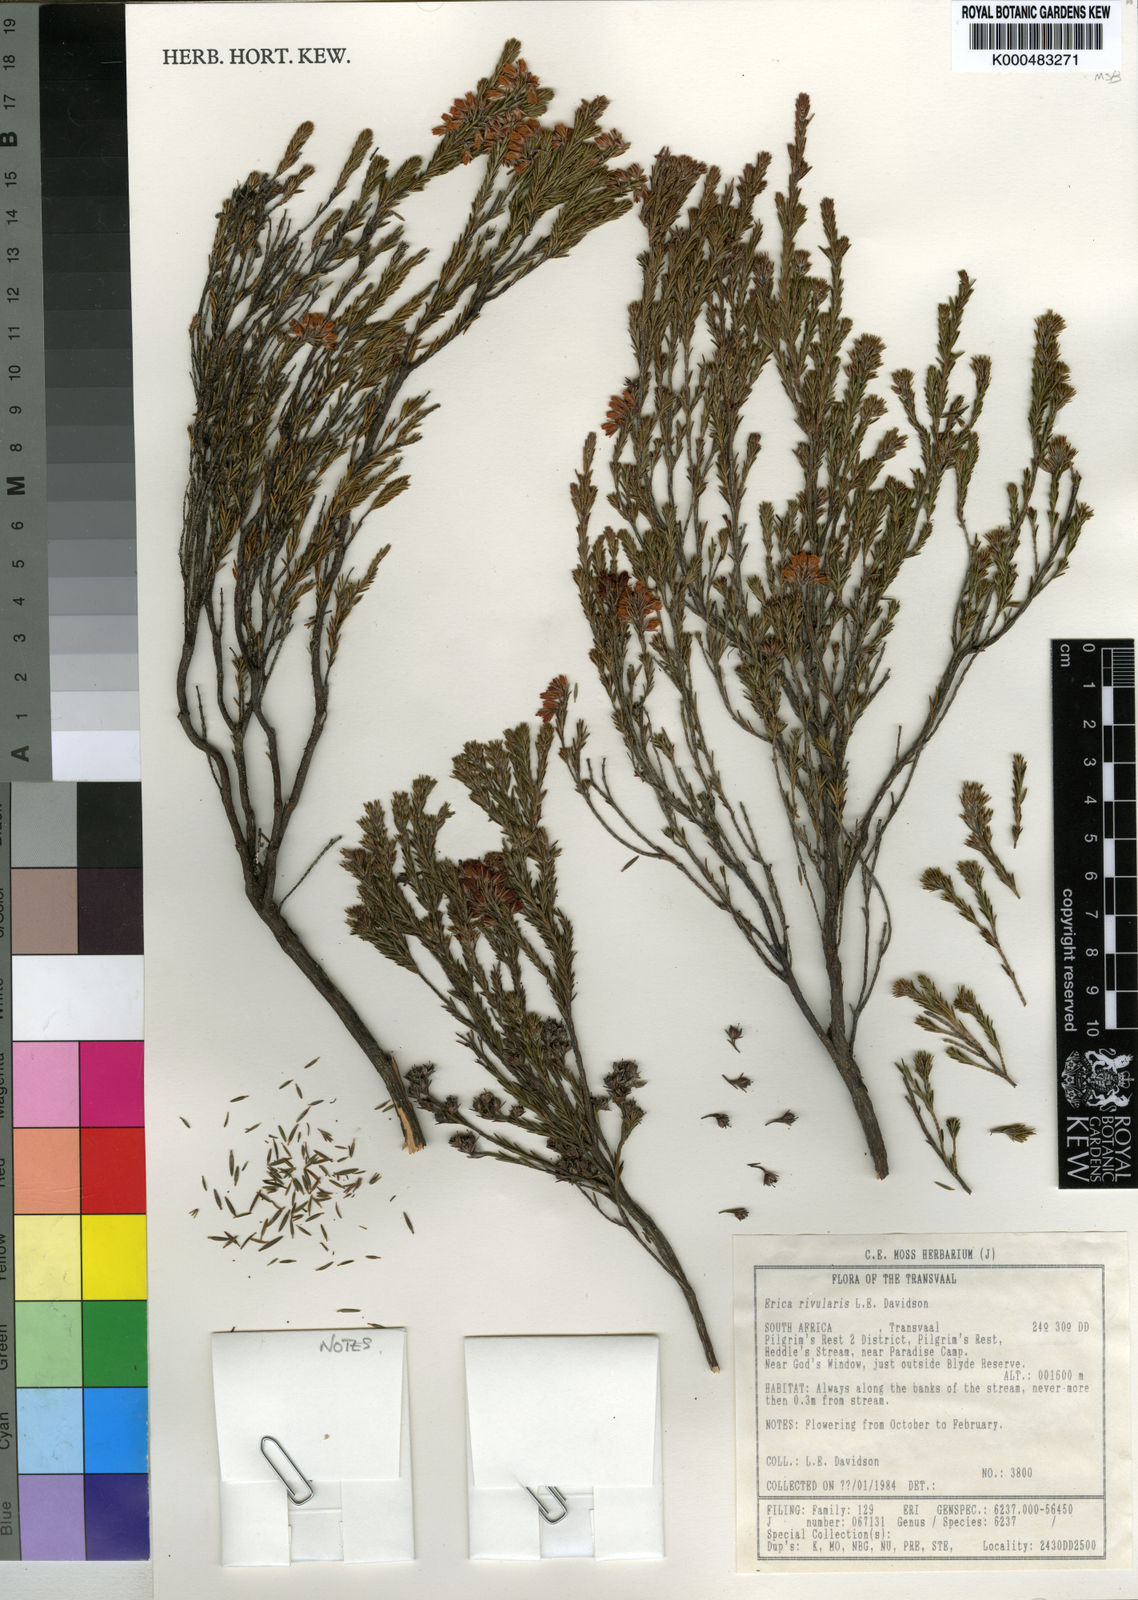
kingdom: Plantae
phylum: Tracheophyta
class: Magnoliopsida
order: Ericales
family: Ericaceae
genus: Erica
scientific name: Erica rivularis
